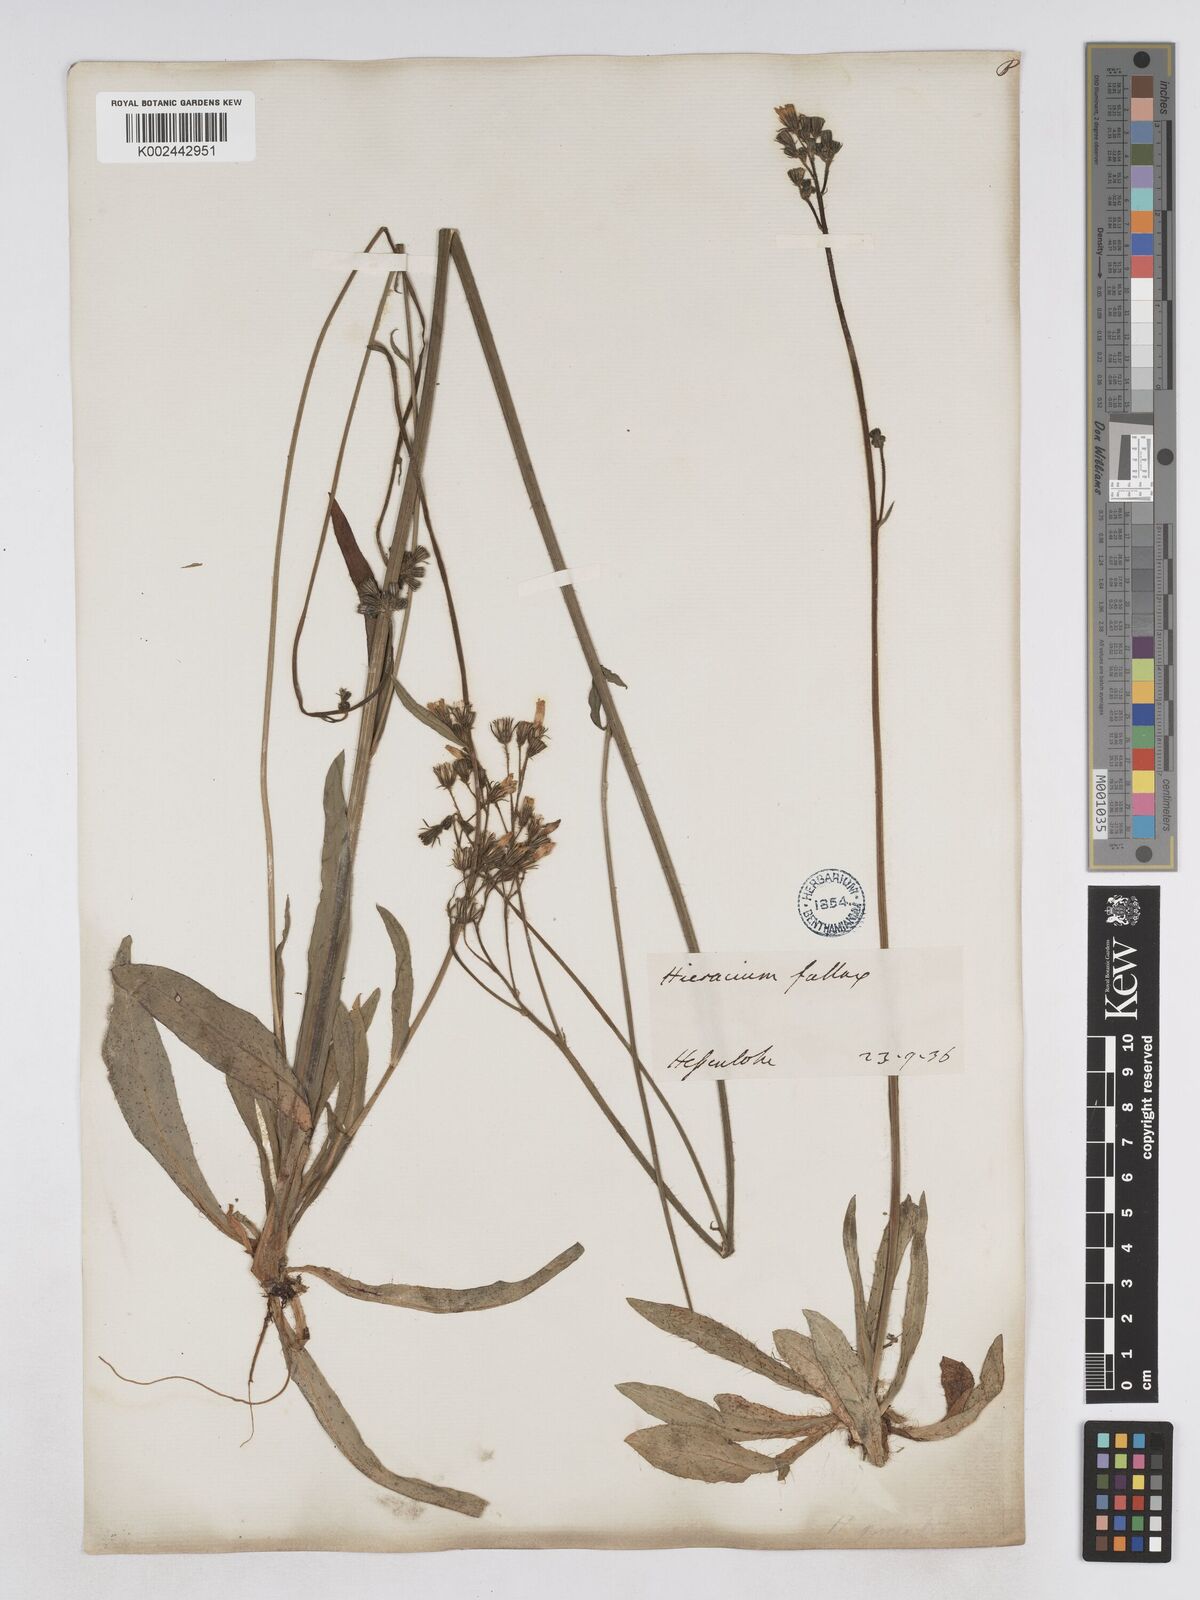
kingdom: Plantae
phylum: Tracheophyta
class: Magnoliopsida
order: Asterales
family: Asteraceae
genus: Pilosella
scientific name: Pilosella piloselloides
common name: Glaucous king-devil
